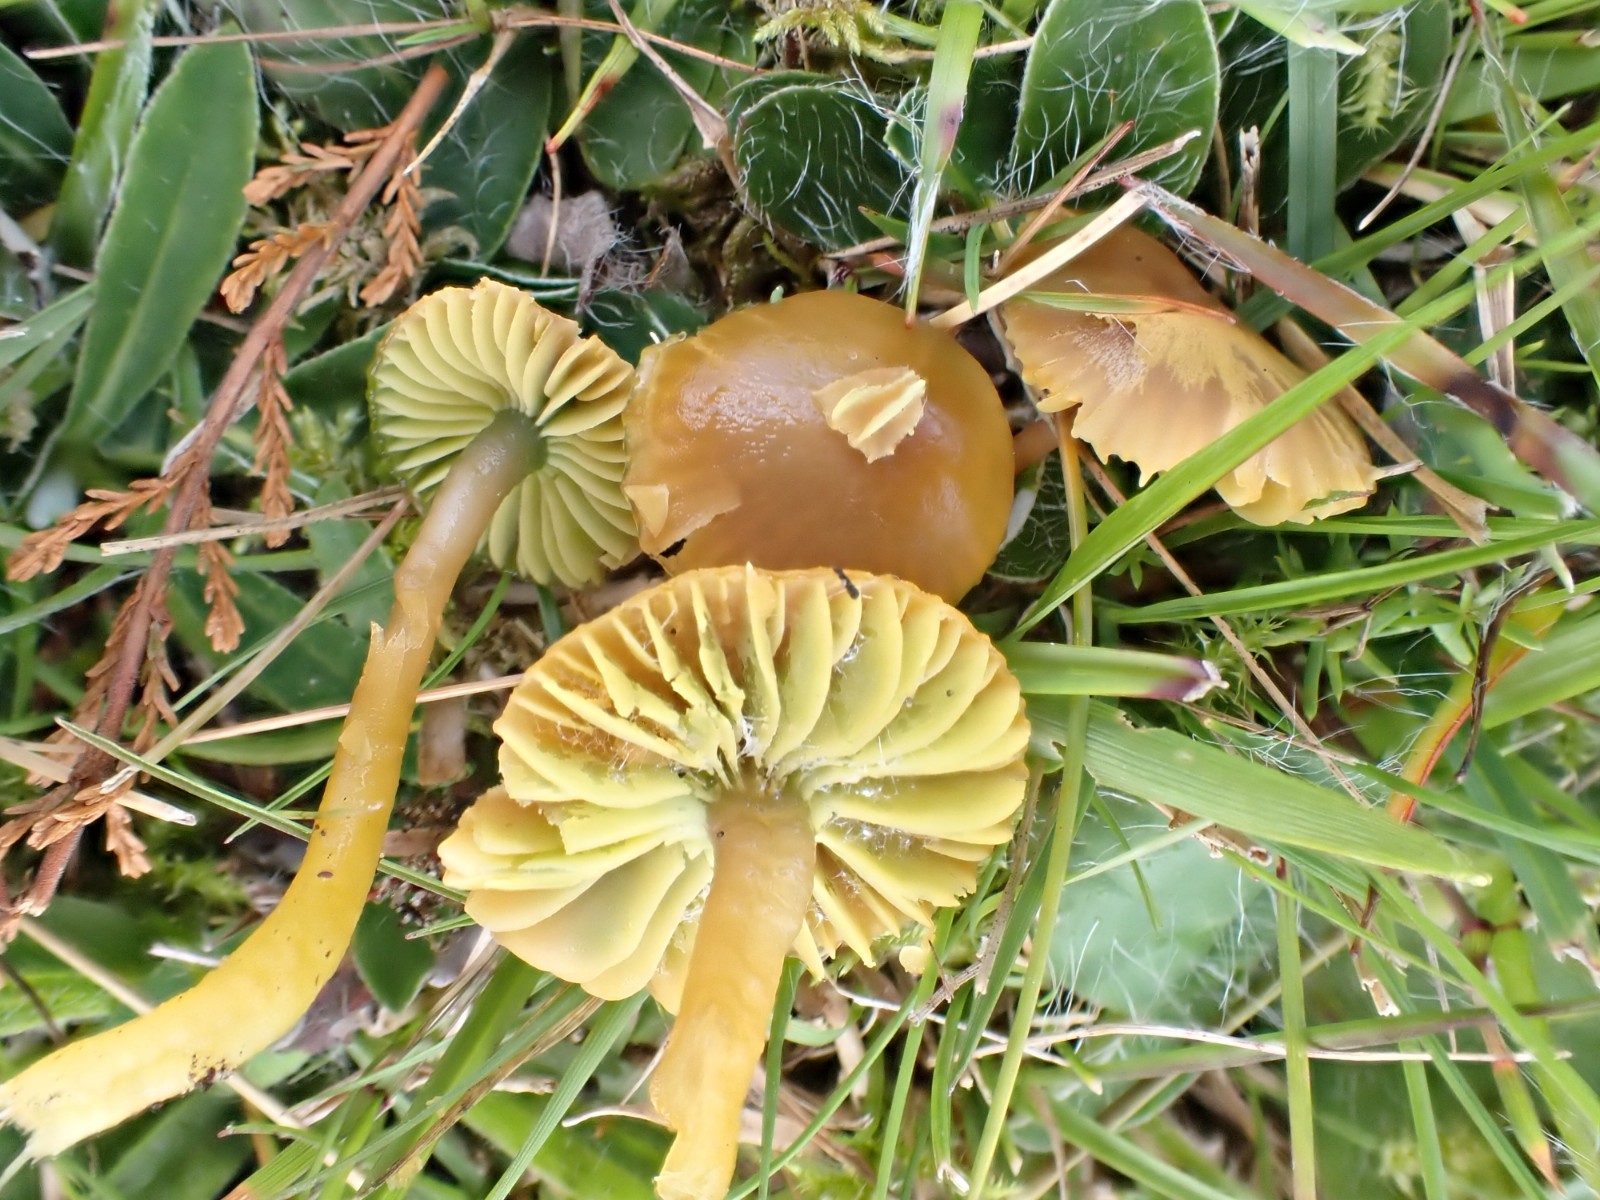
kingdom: Fungi
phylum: Basidiomycota
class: Agaricomycetes
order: Agaricales
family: Hygrophoraceae
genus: Gliophorus
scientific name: Gliophorus psittacinus
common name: papegøje-vokshat
